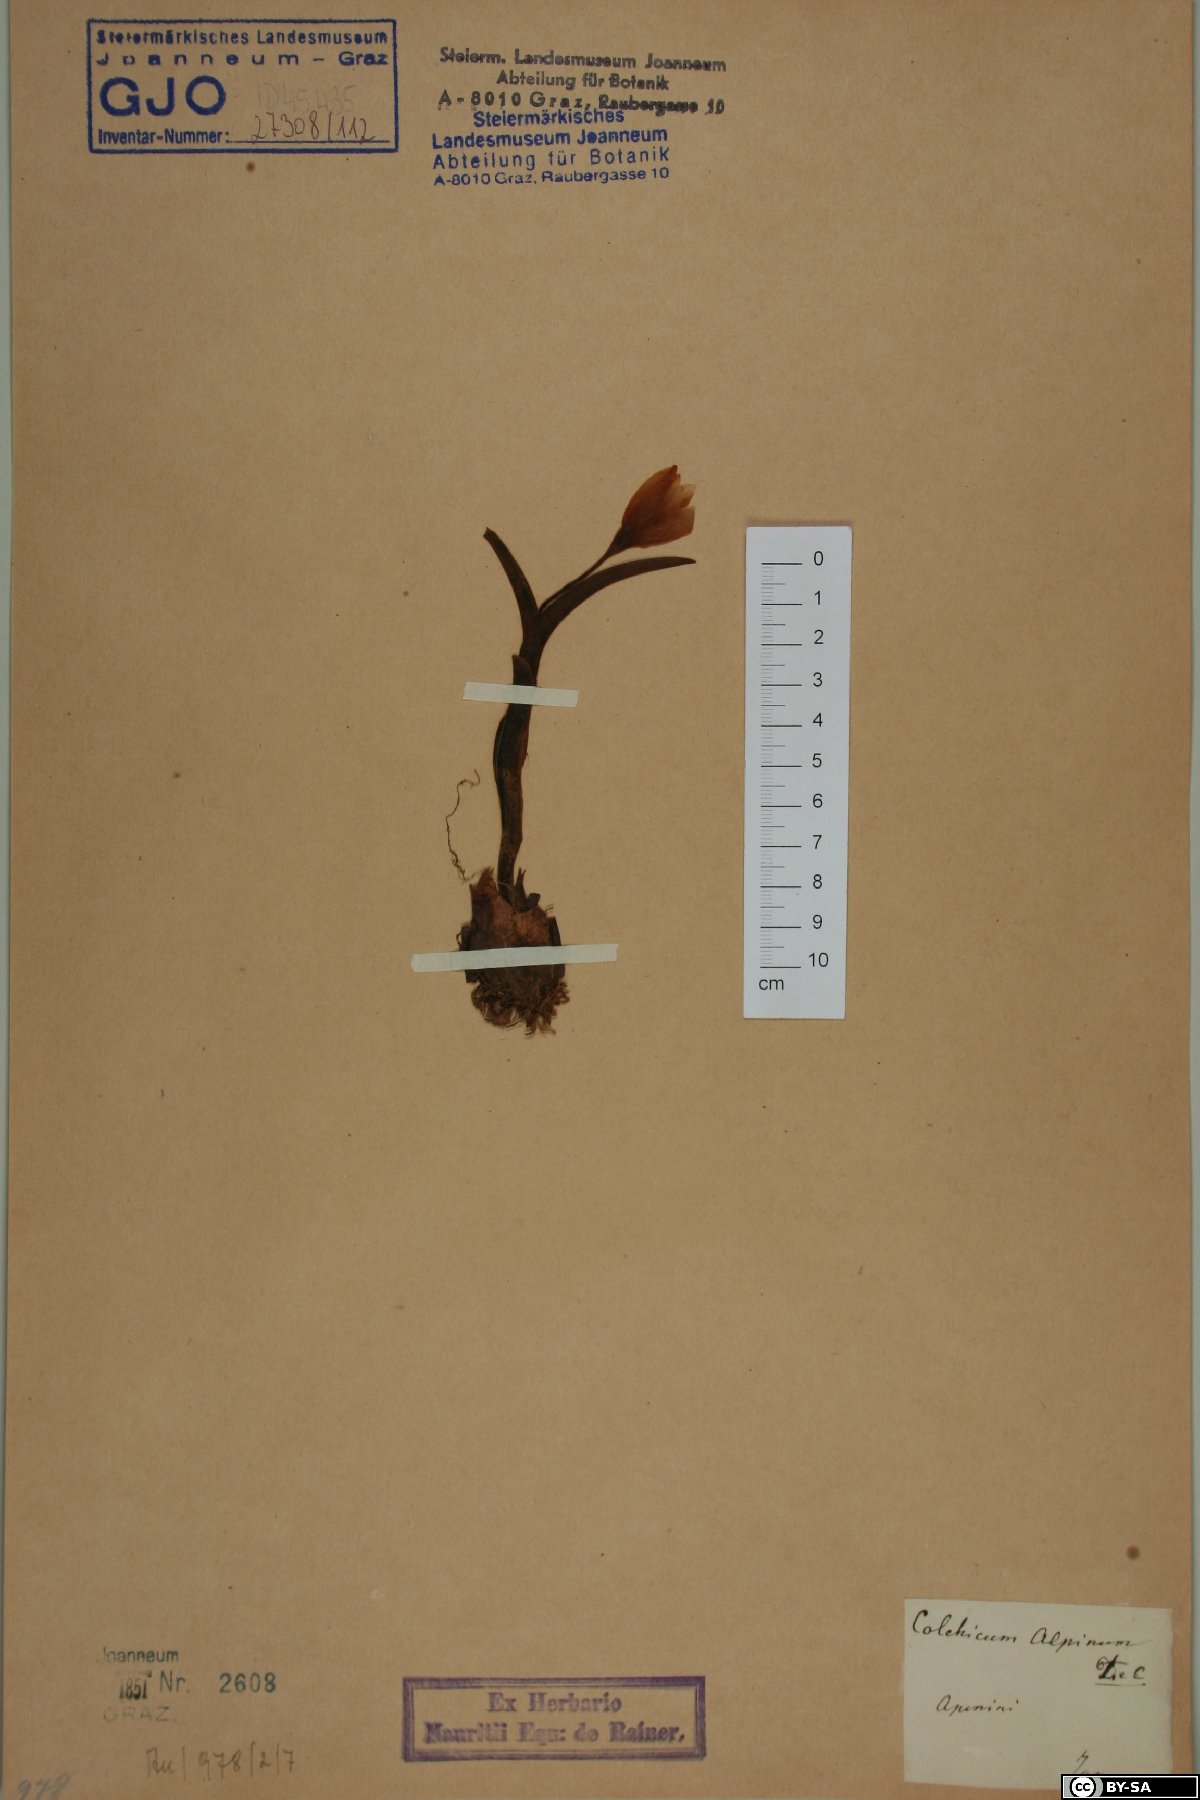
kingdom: Plantae
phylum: Tracheophyta
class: Liliopsida
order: Liliales
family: Colchicaceae
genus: Colchicum
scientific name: Colchicum alpinum
